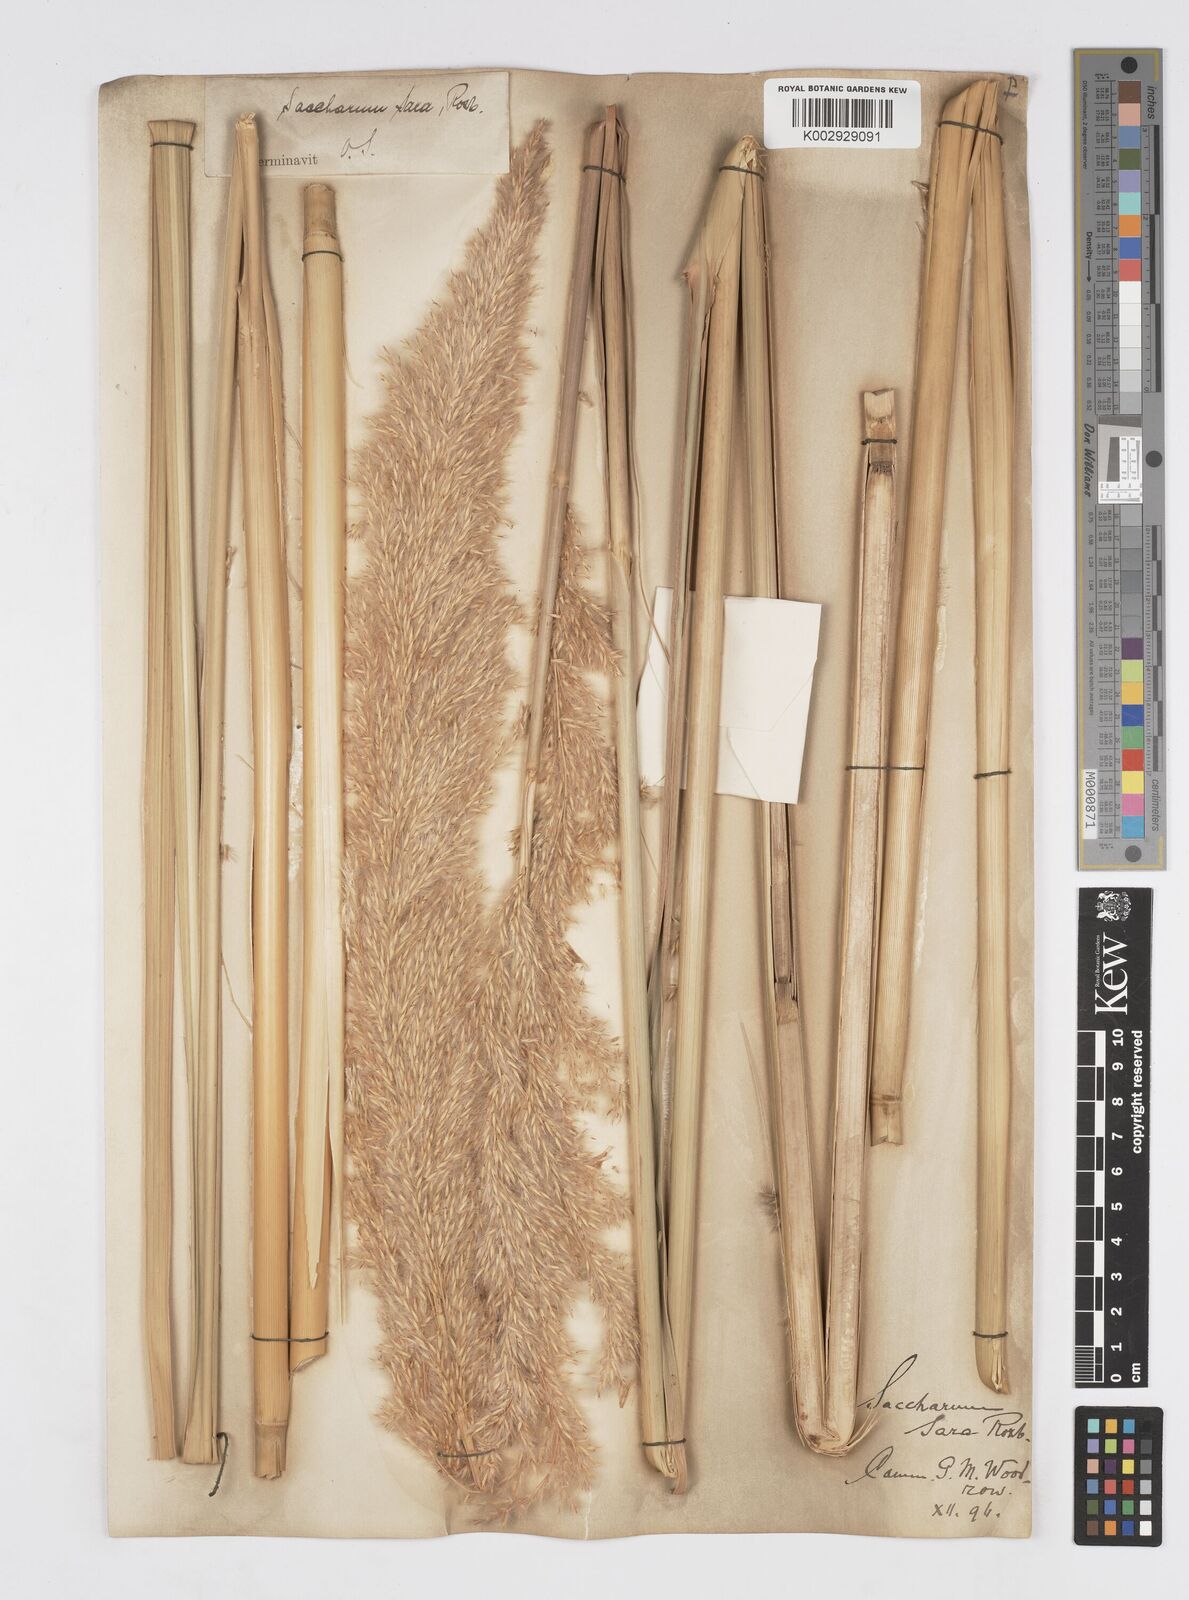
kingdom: Plantae
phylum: Tracheophyta
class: Liliopsida
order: Poales
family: Poaceae
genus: Tripidium
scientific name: Tripidium bengalense
